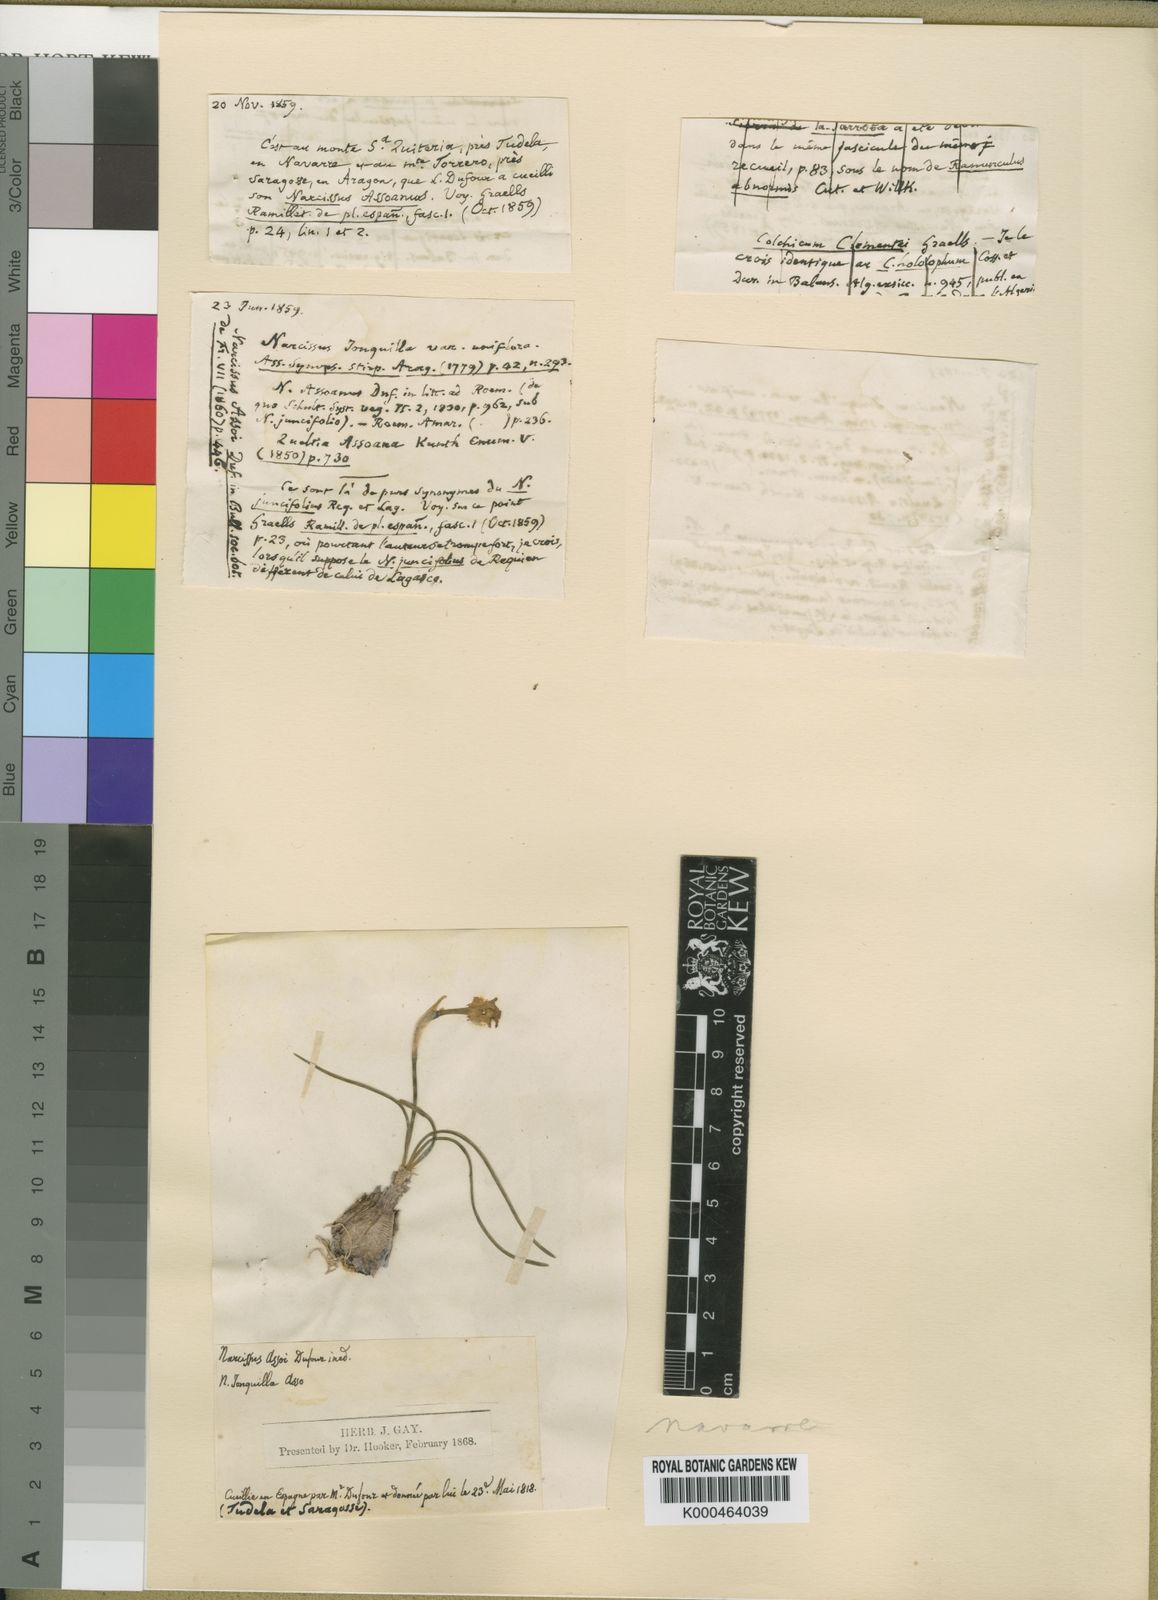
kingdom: Plantae
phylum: Tracheophyta
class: Liliopsida
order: Asparagales
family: Amaryllidaceae
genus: Narcissus
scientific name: Narcissus
